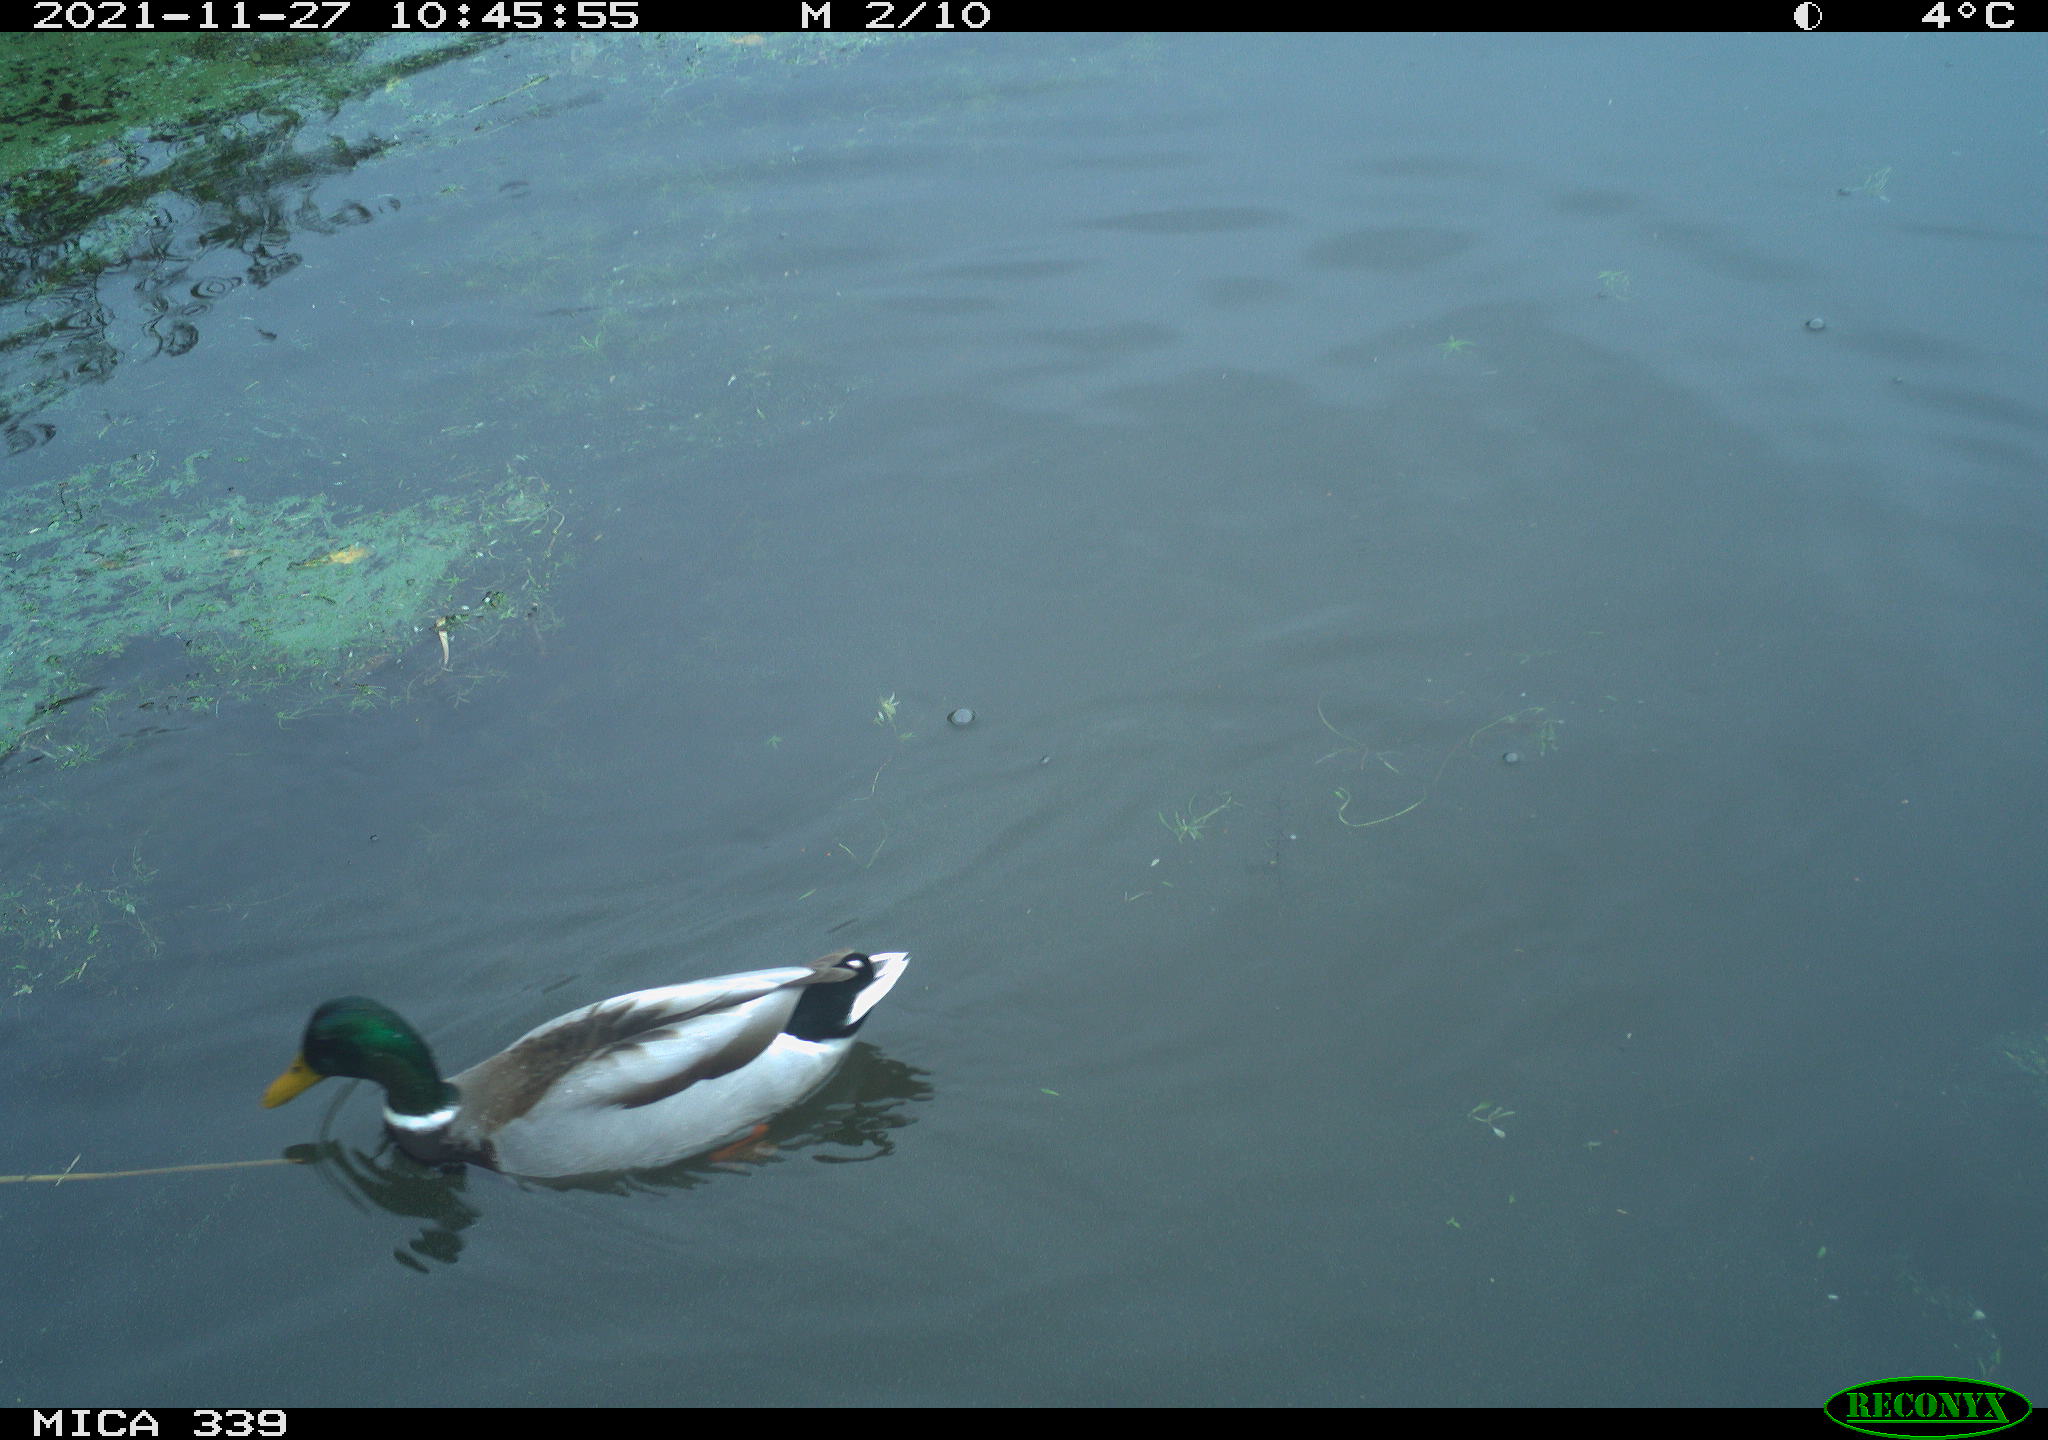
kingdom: Animalia
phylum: Chordata
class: Aves
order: Anseriformes
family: Anatidae
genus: Anas
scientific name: Anas platyrhynchos
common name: Mallard
